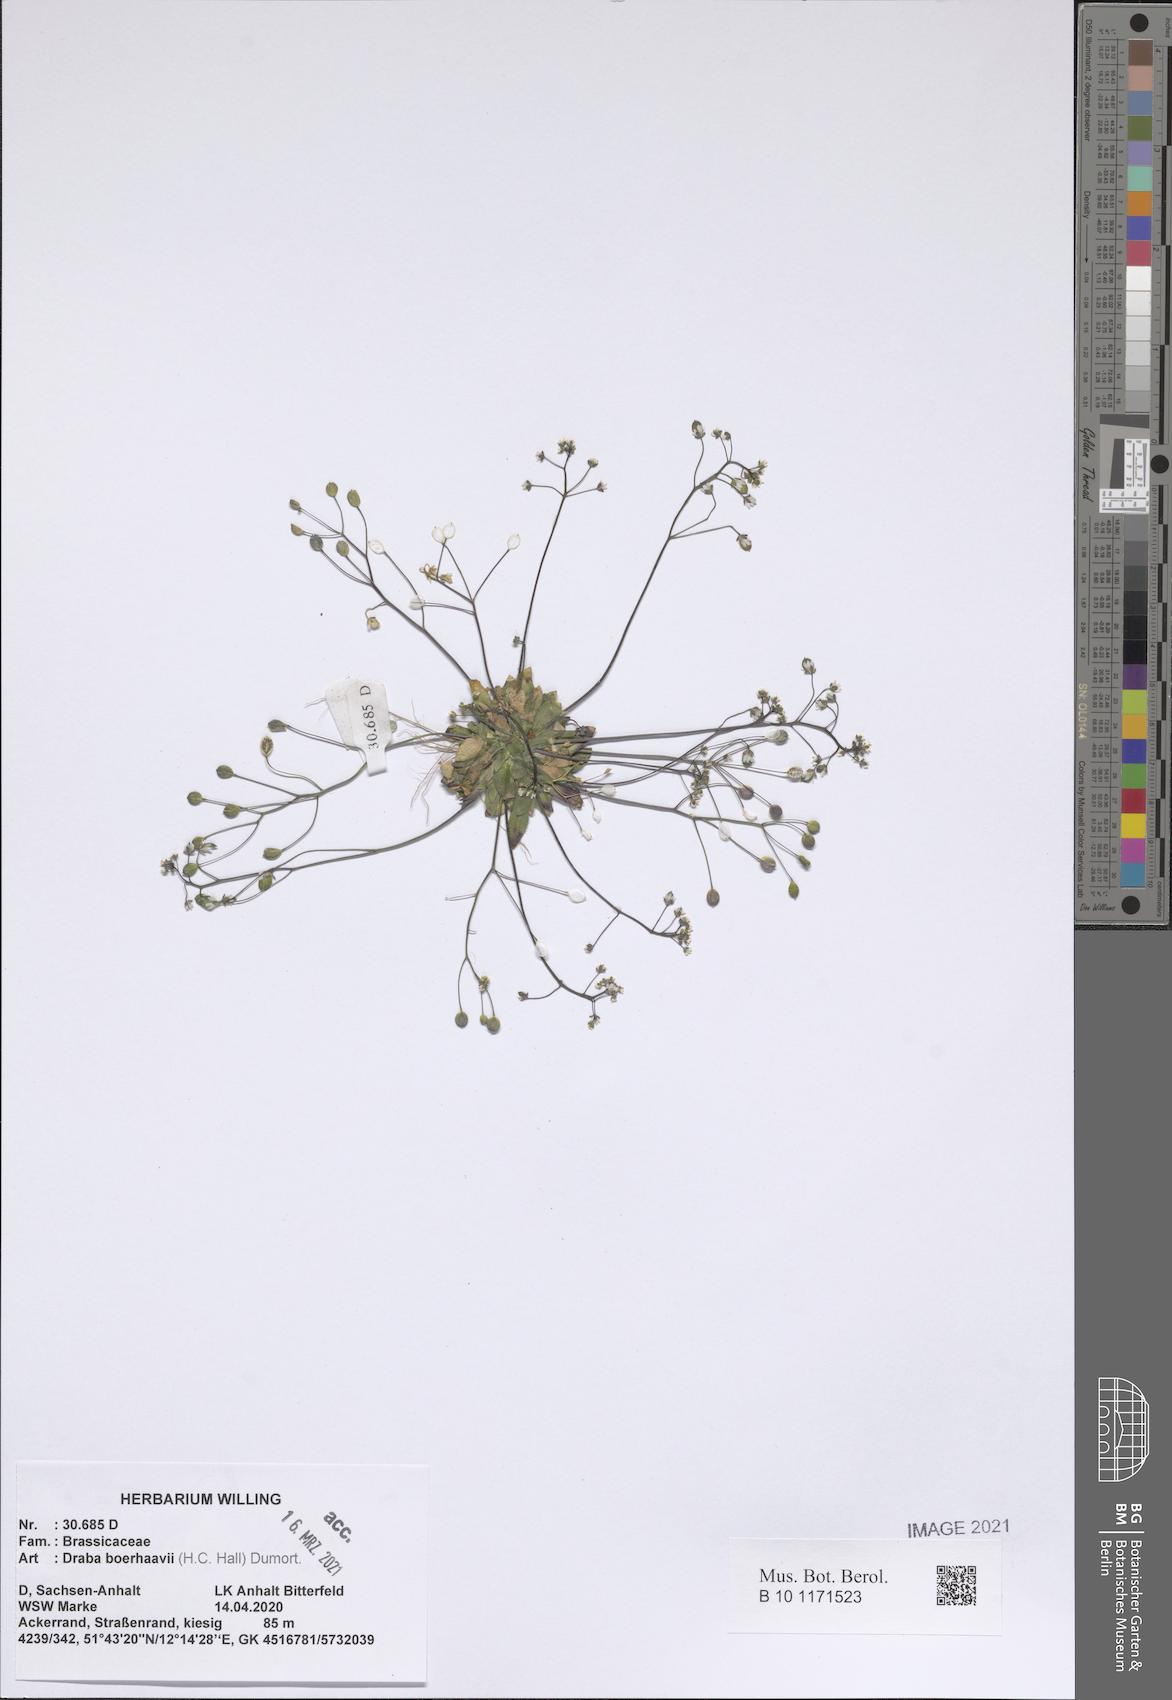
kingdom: Plantae
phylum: Tracheophyta
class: Magnoliopsida
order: Brassicales
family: Brassicaceae
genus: Draba
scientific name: Draba verna
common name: Spring draba
